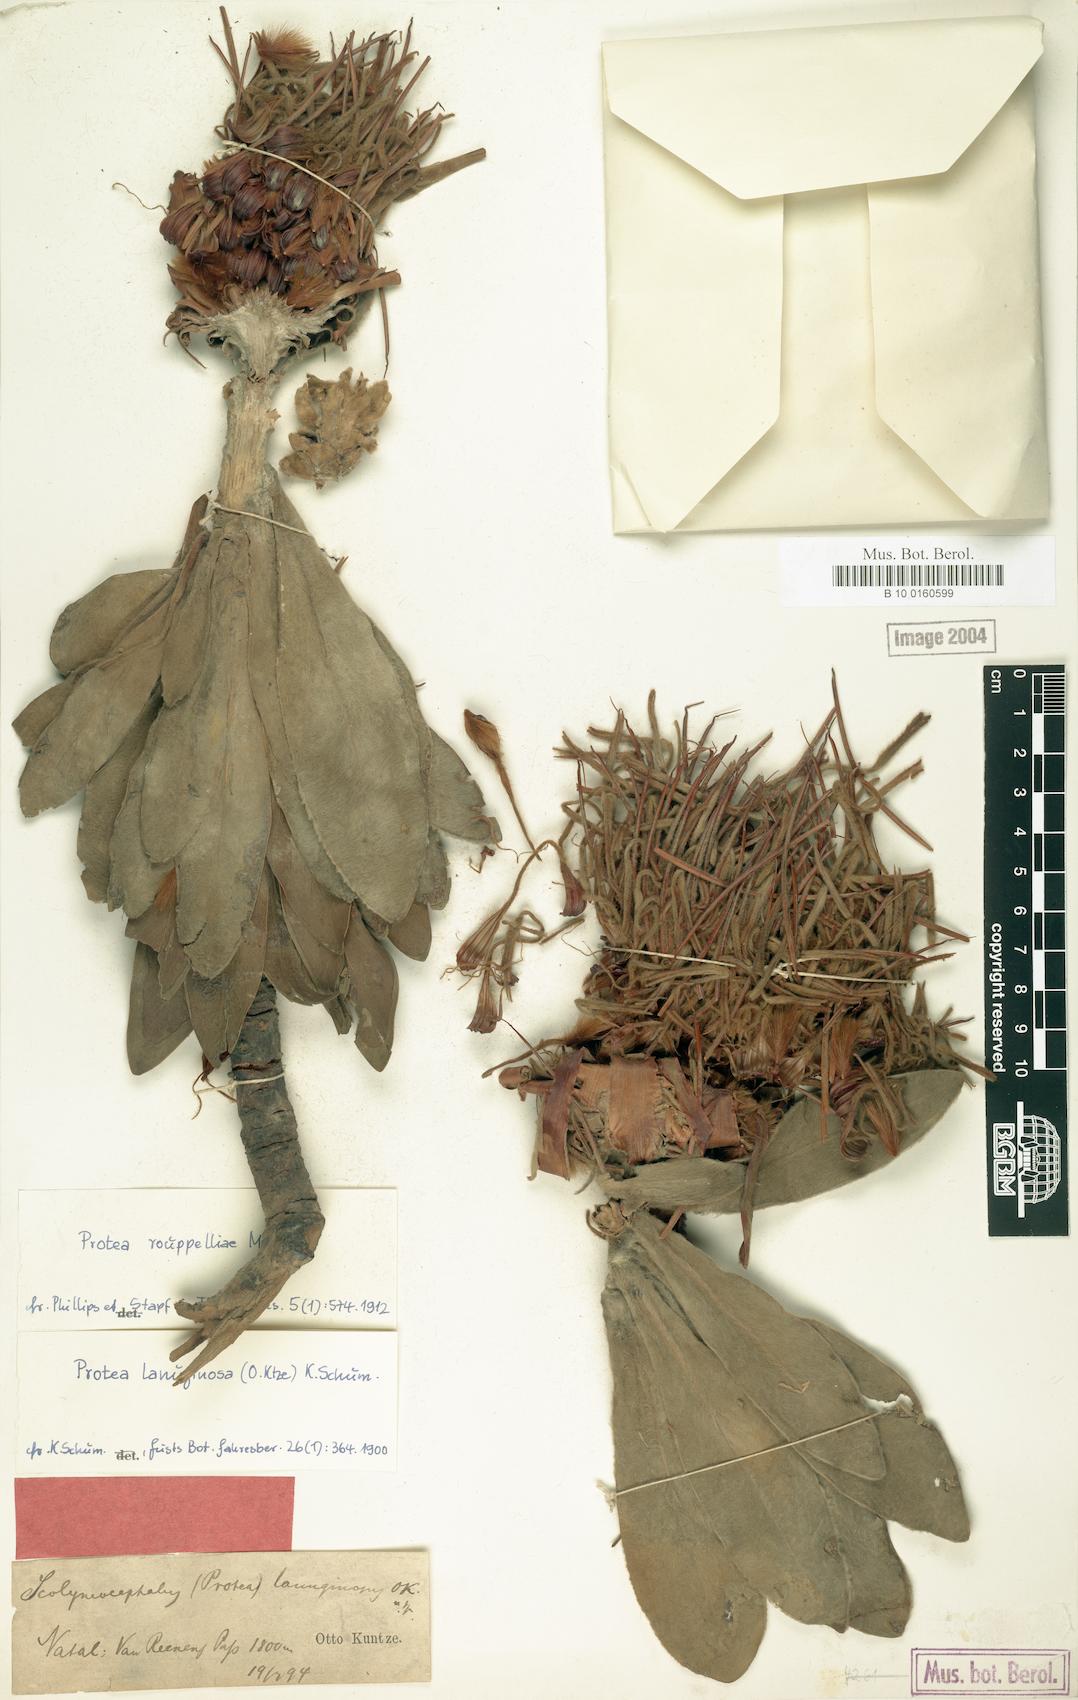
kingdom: Plantae
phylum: Tracheophyta
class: Magnoliopsida
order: Proteales
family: Proteaceae
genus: Protea
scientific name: Protea roupelliae
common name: Silver sugarbush
